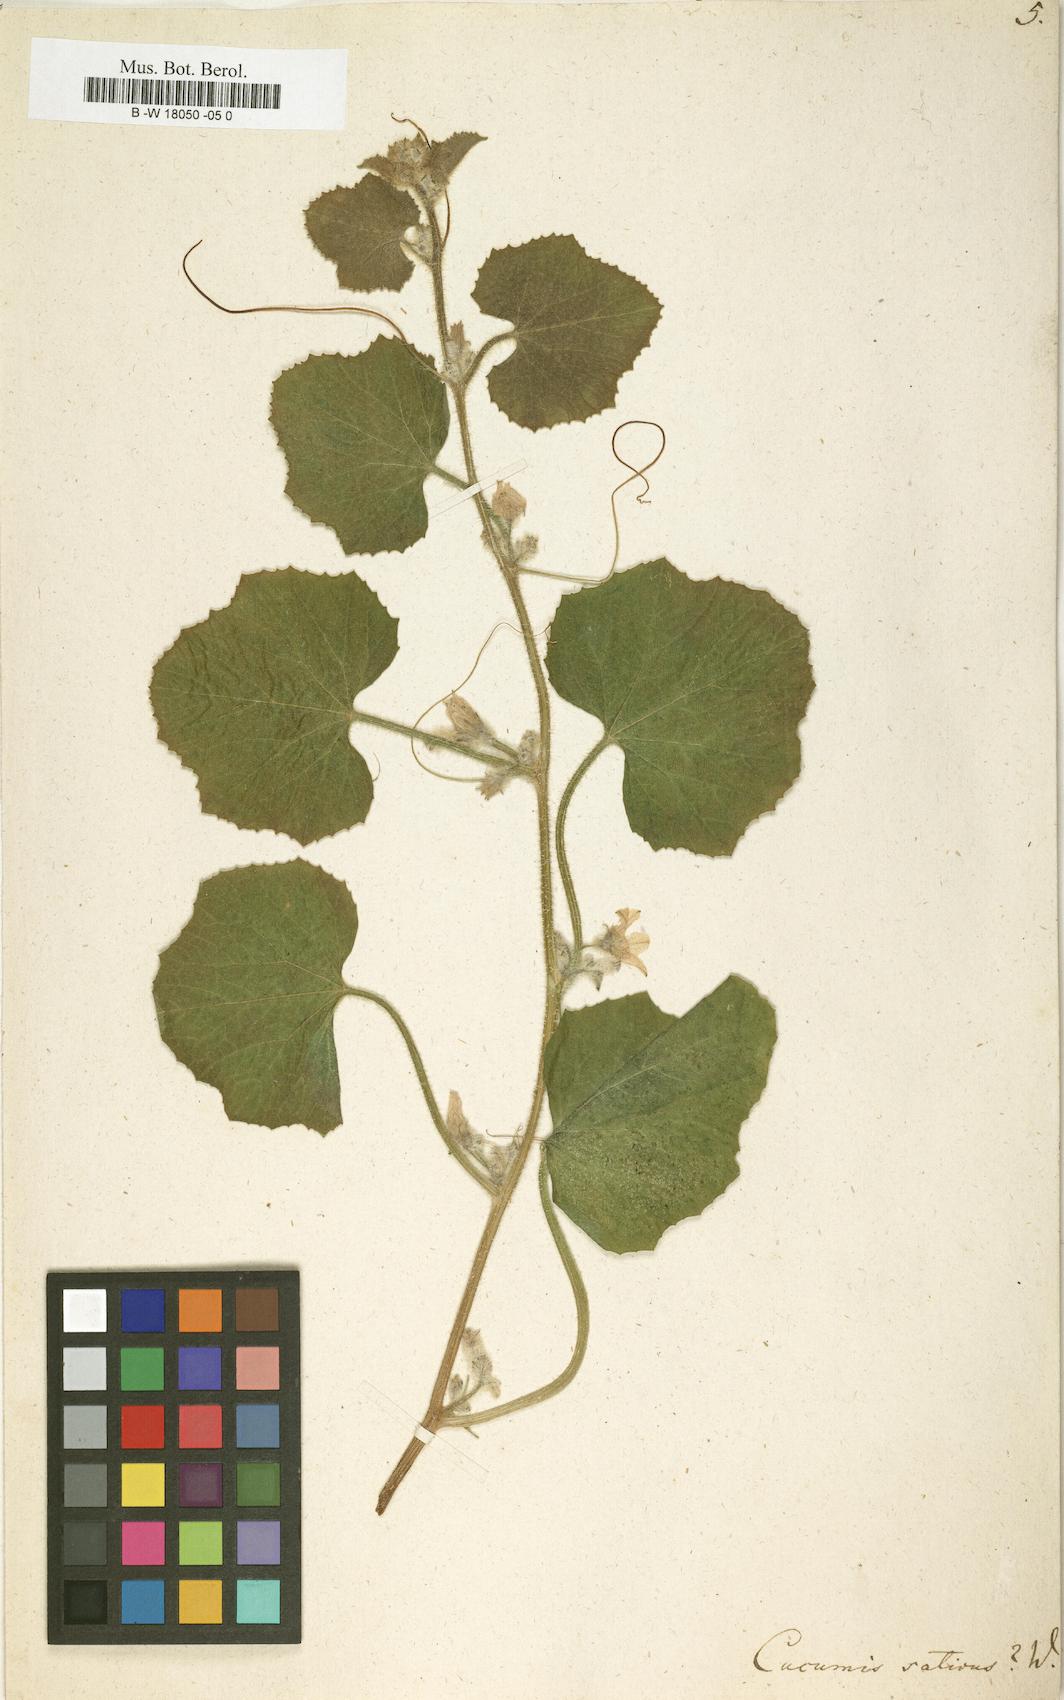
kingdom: Plantae
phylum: Tracheophyta
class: Magnoliopsida
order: Cucurbitales
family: Cucurbitaceae
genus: Cucumis
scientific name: Cucumis sativus
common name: Cucumber
